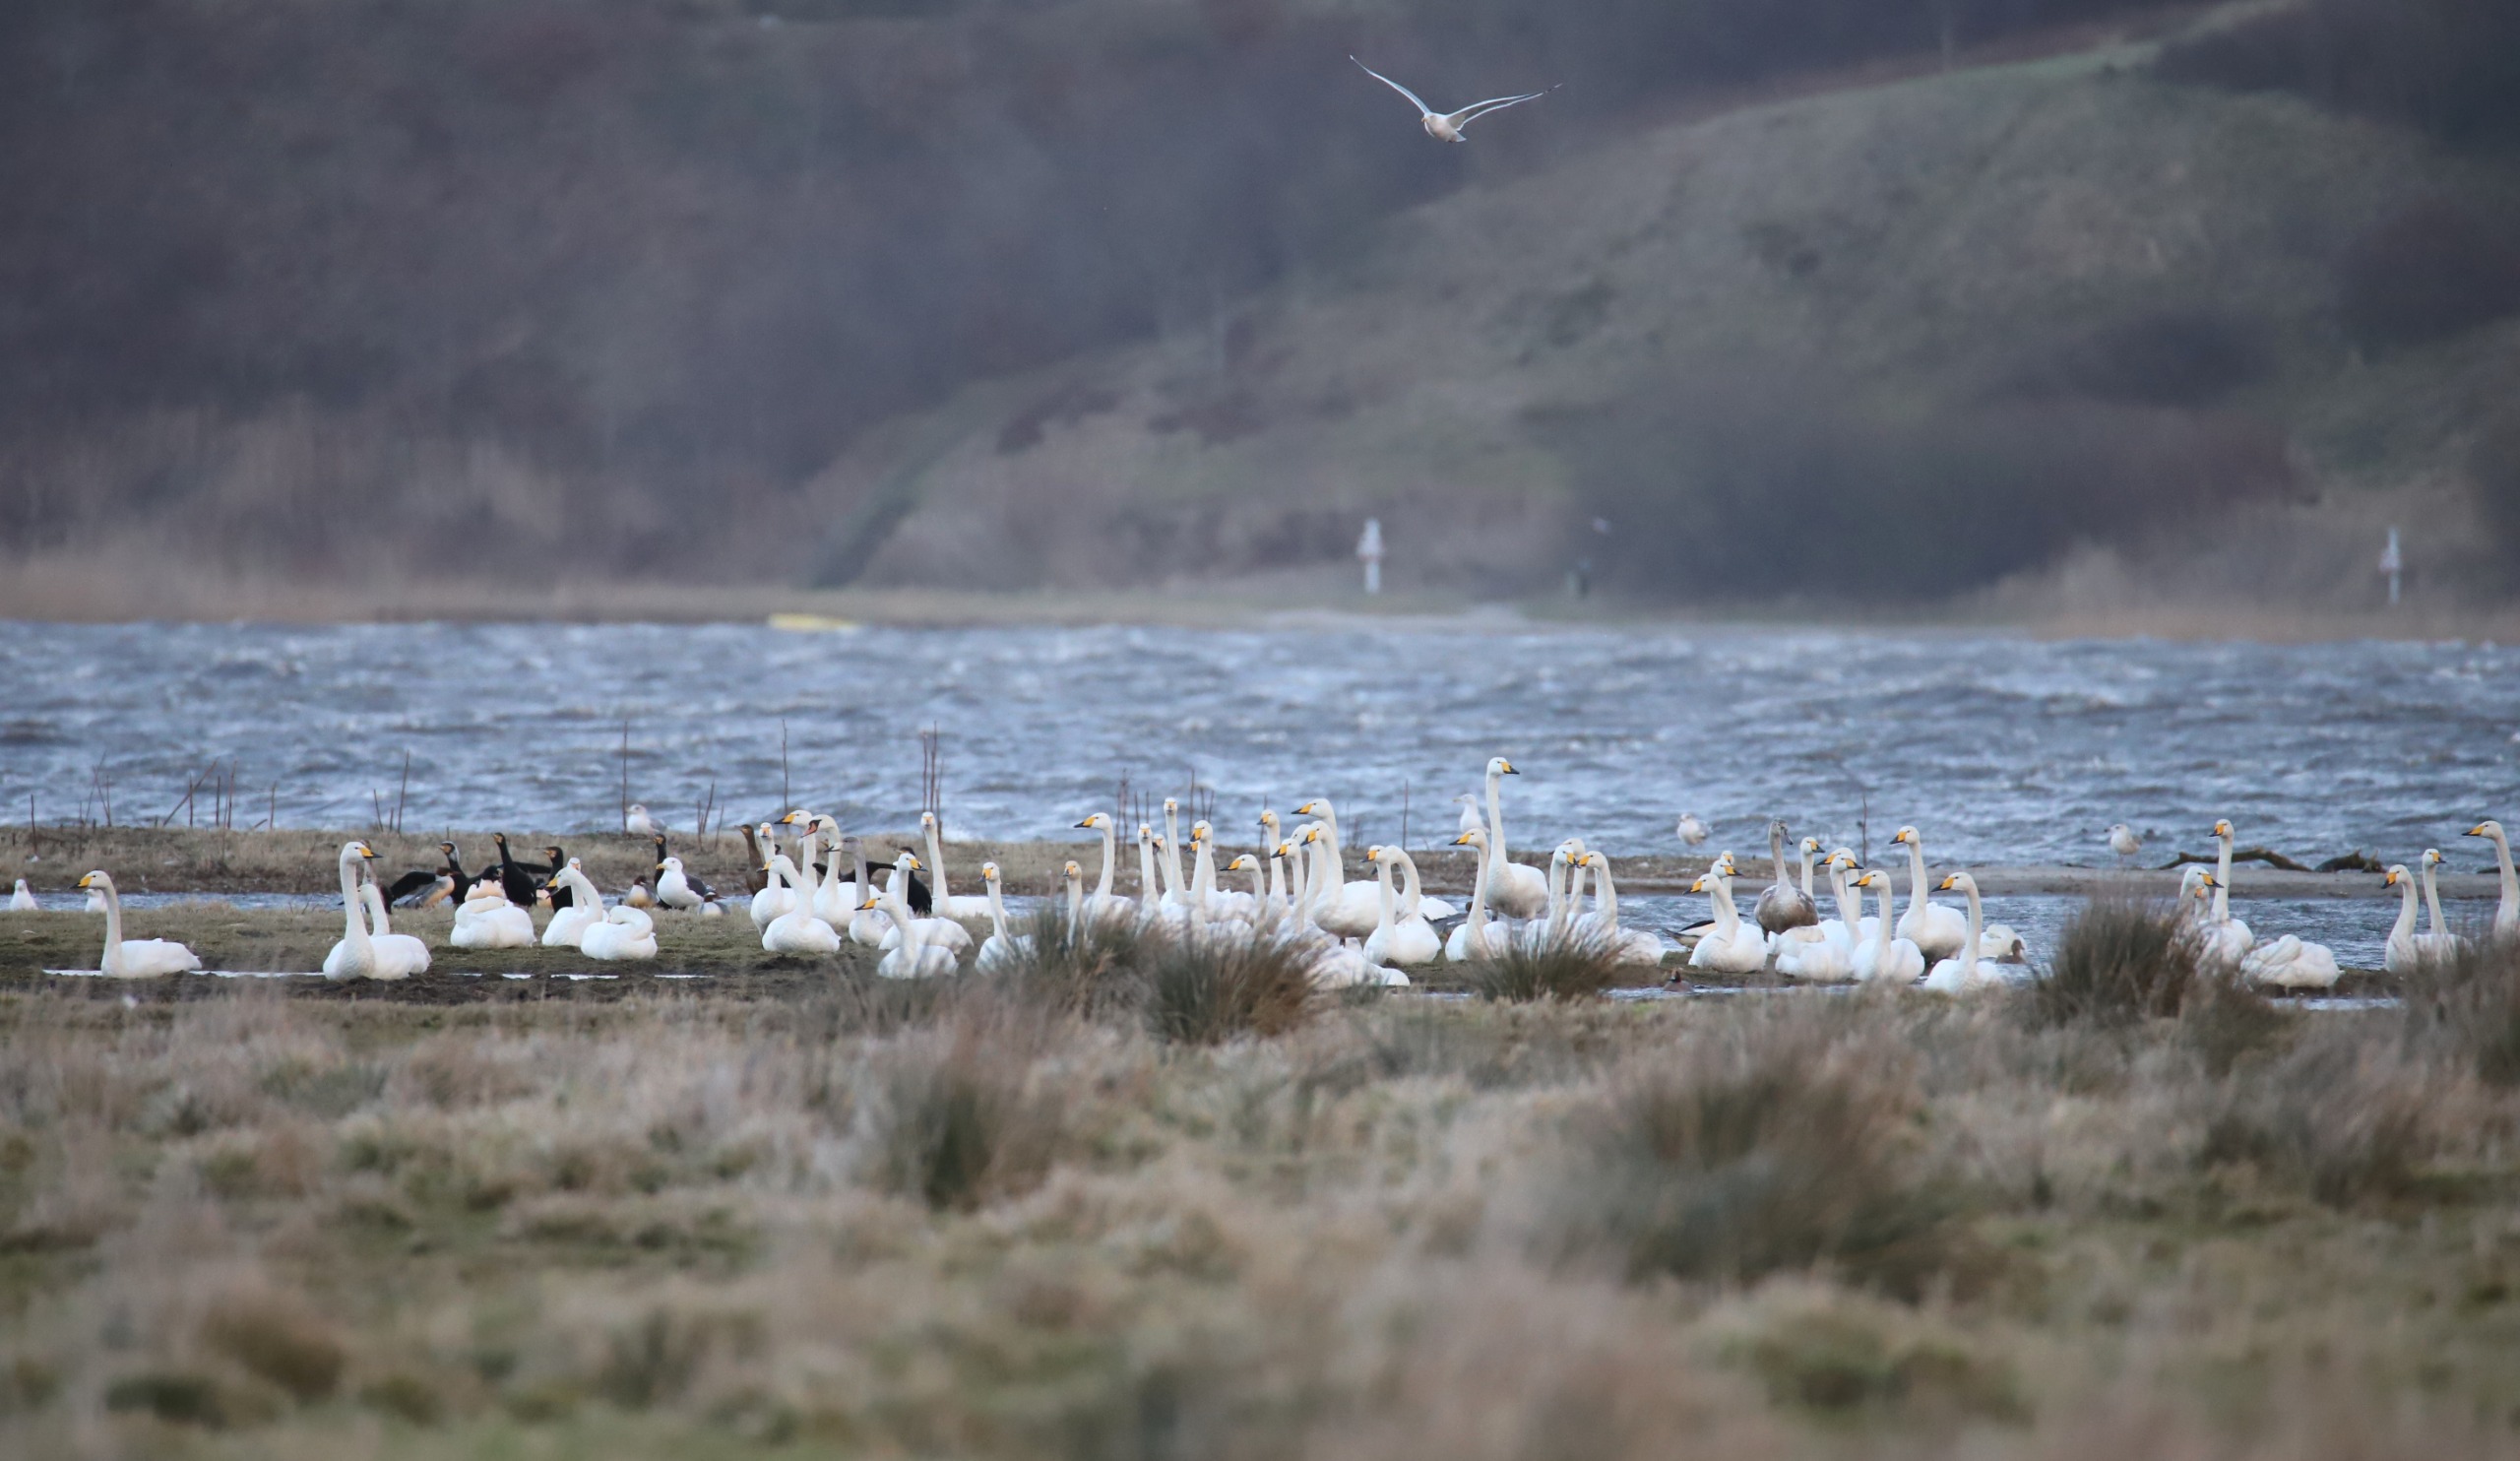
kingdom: Animalia
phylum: Chordata
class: Aves
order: Anseriformes
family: Anatidae
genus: Cygnus
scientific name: Cygnus cygnus
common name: Sangsvane
